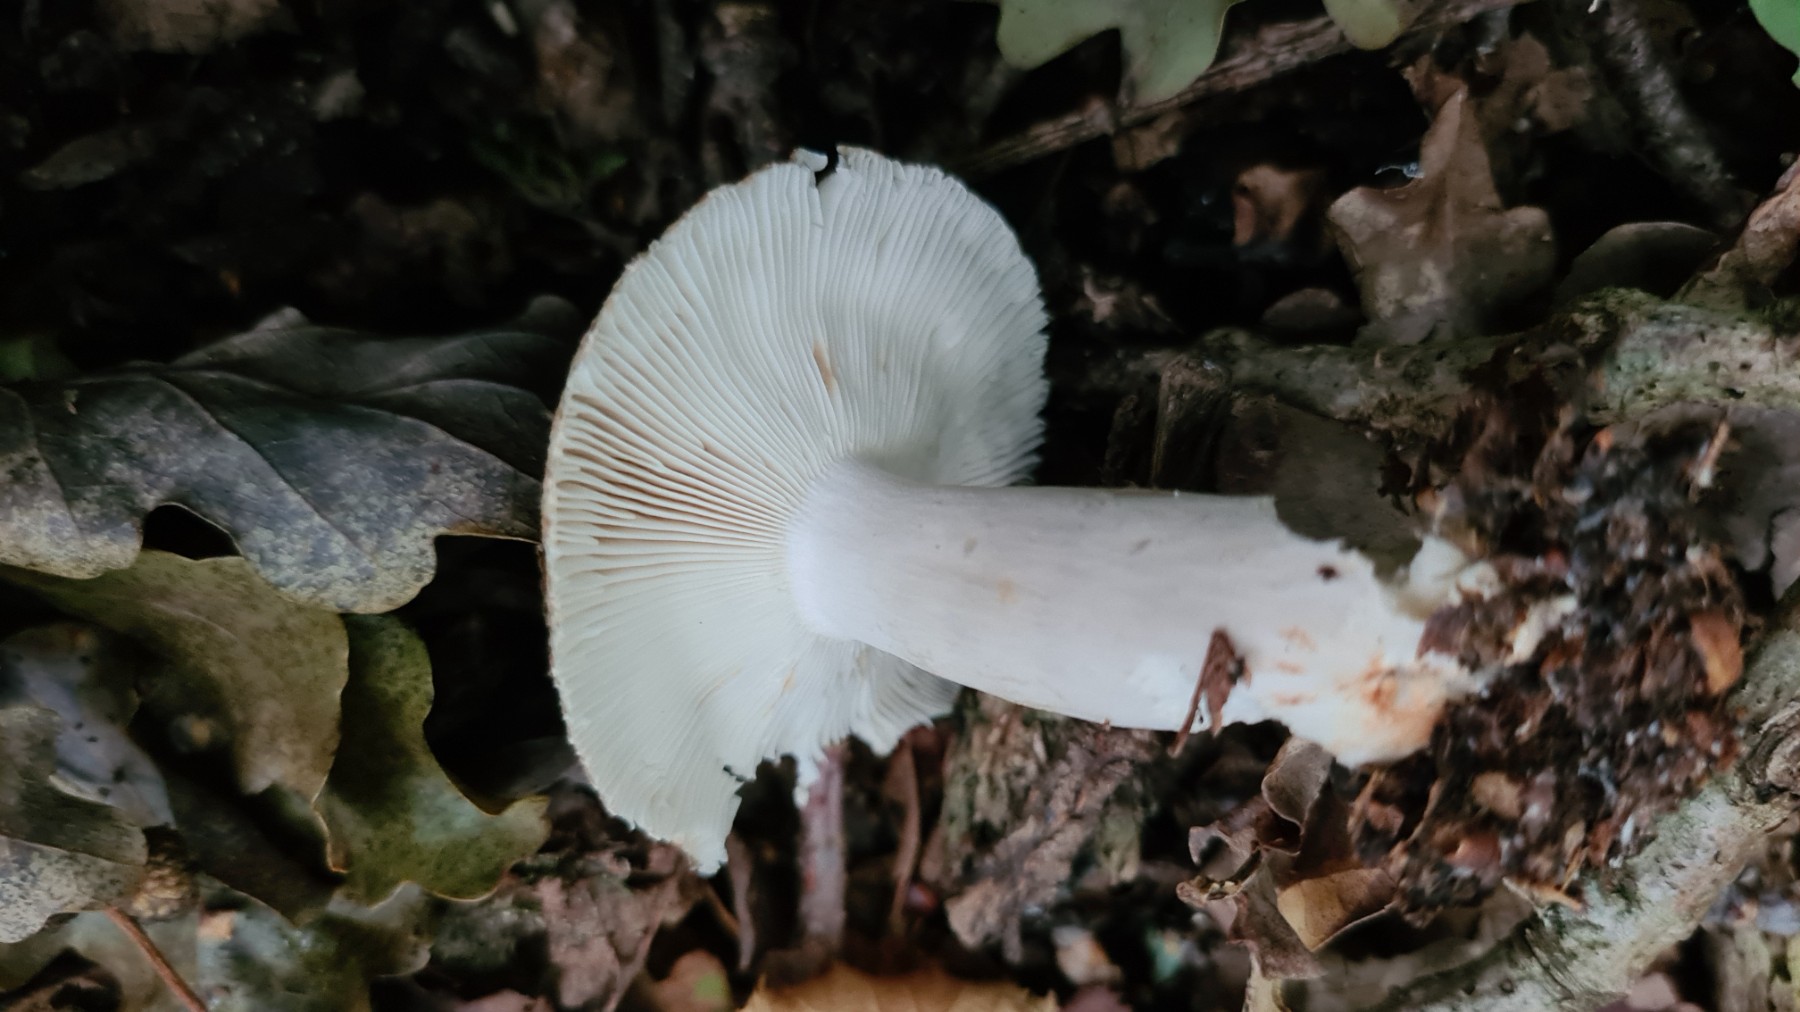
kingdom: Fungi
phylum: Basidiomycota
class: Agaricomycetes
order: Russulales
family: Russulaceae
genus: Russula
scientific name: Russula
